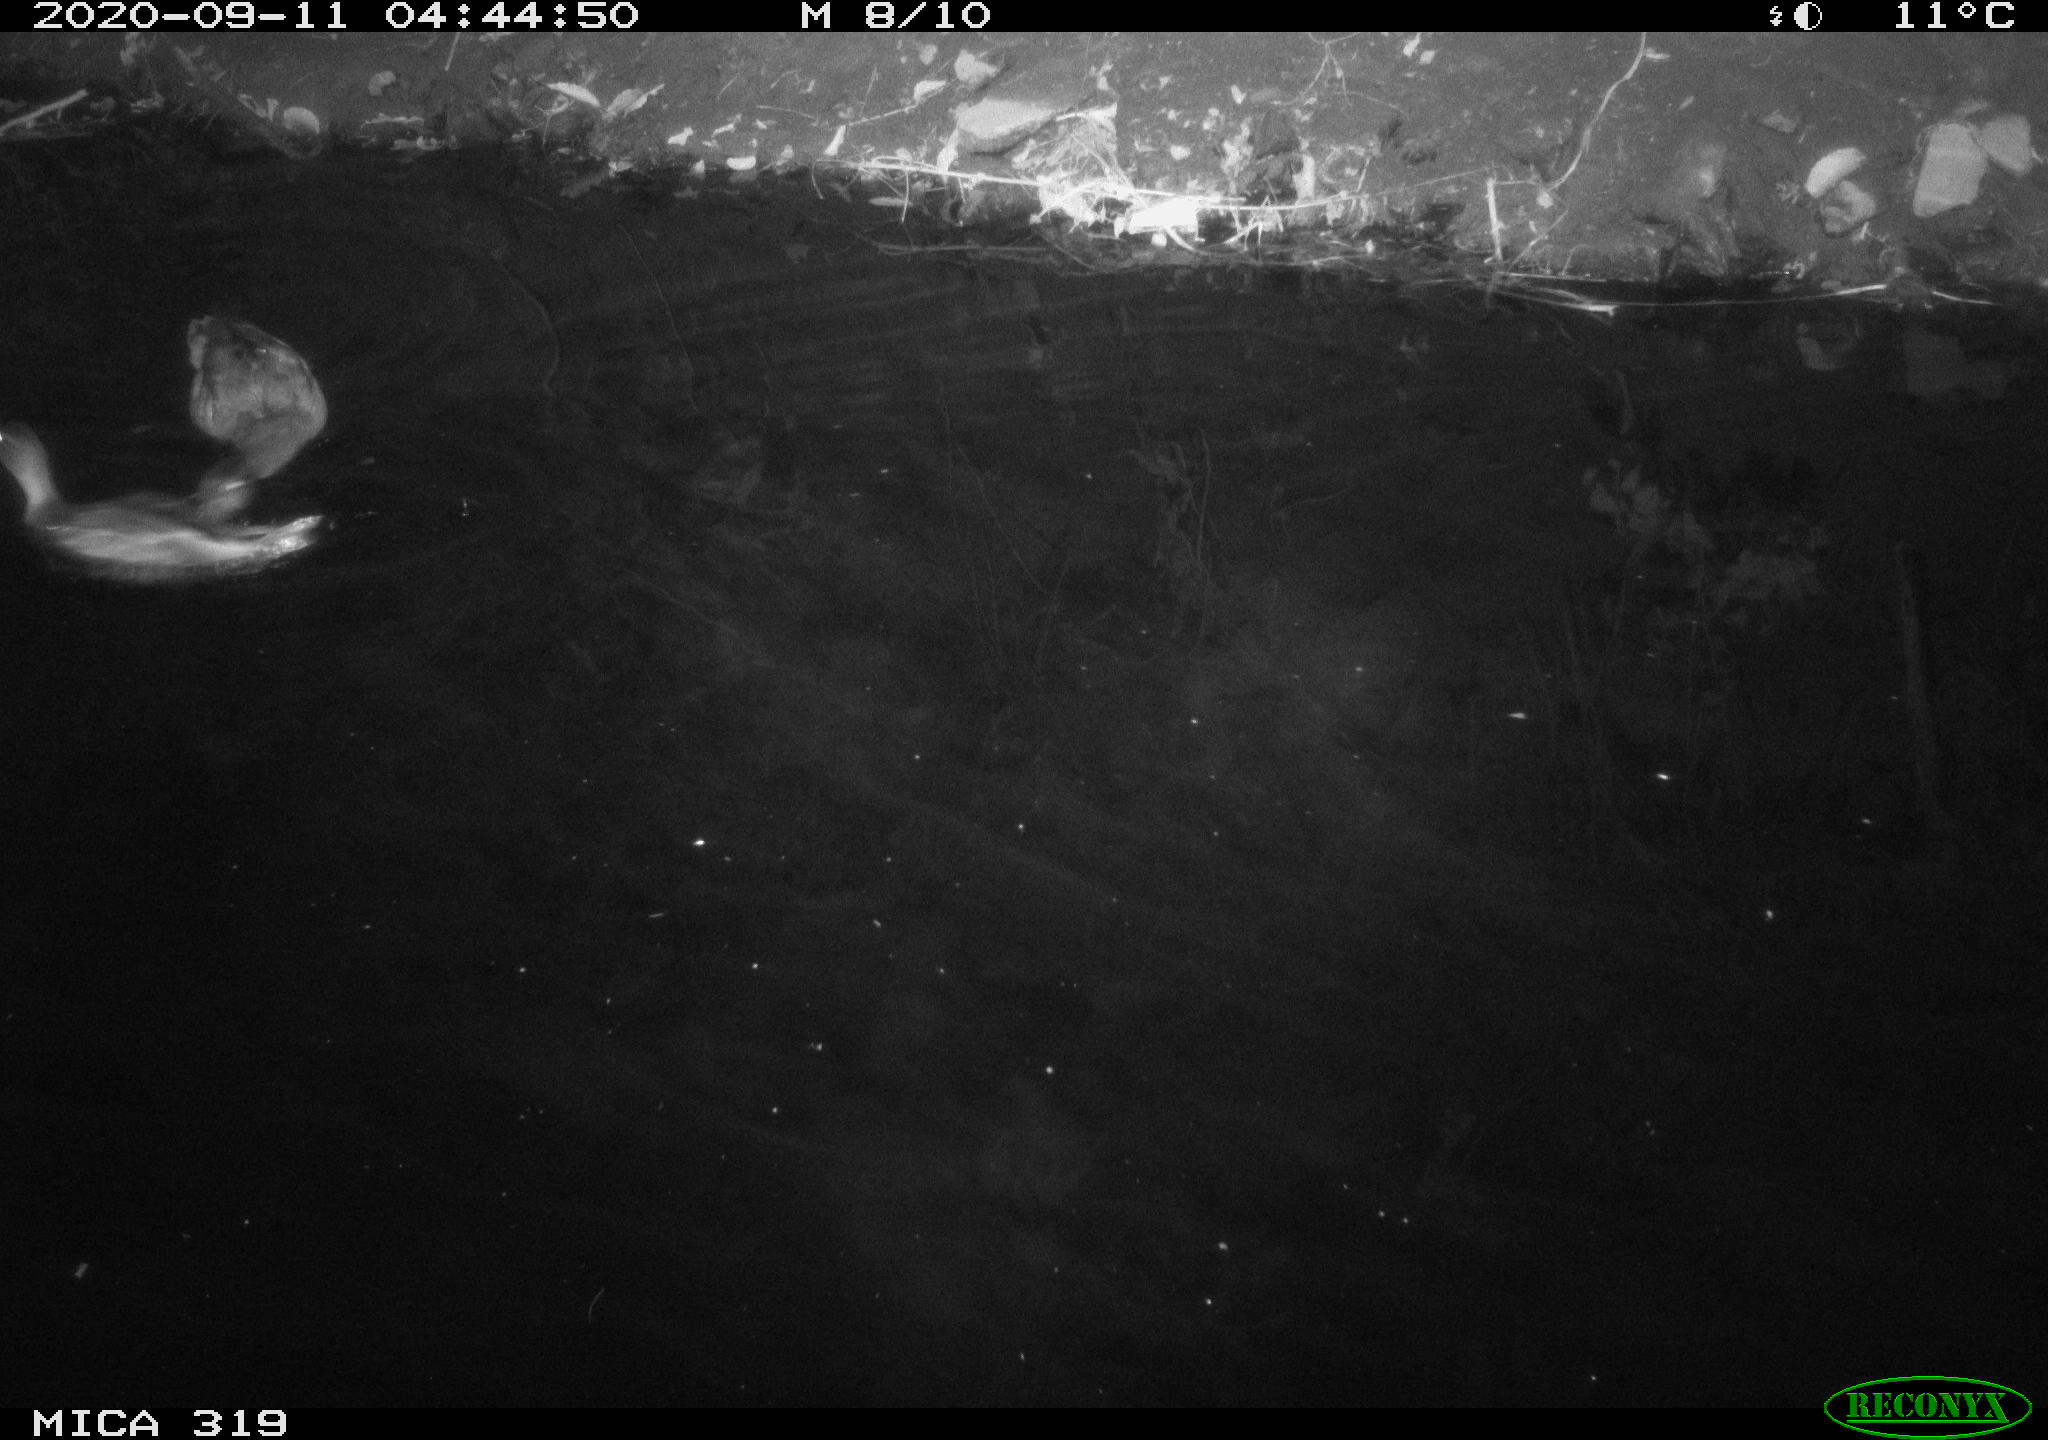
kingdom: Animalia
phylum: Chordata
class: Aves
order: Anseriformes
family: Anatidae
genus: Anas
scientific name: Anas platyrhynchos
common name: Mallard
